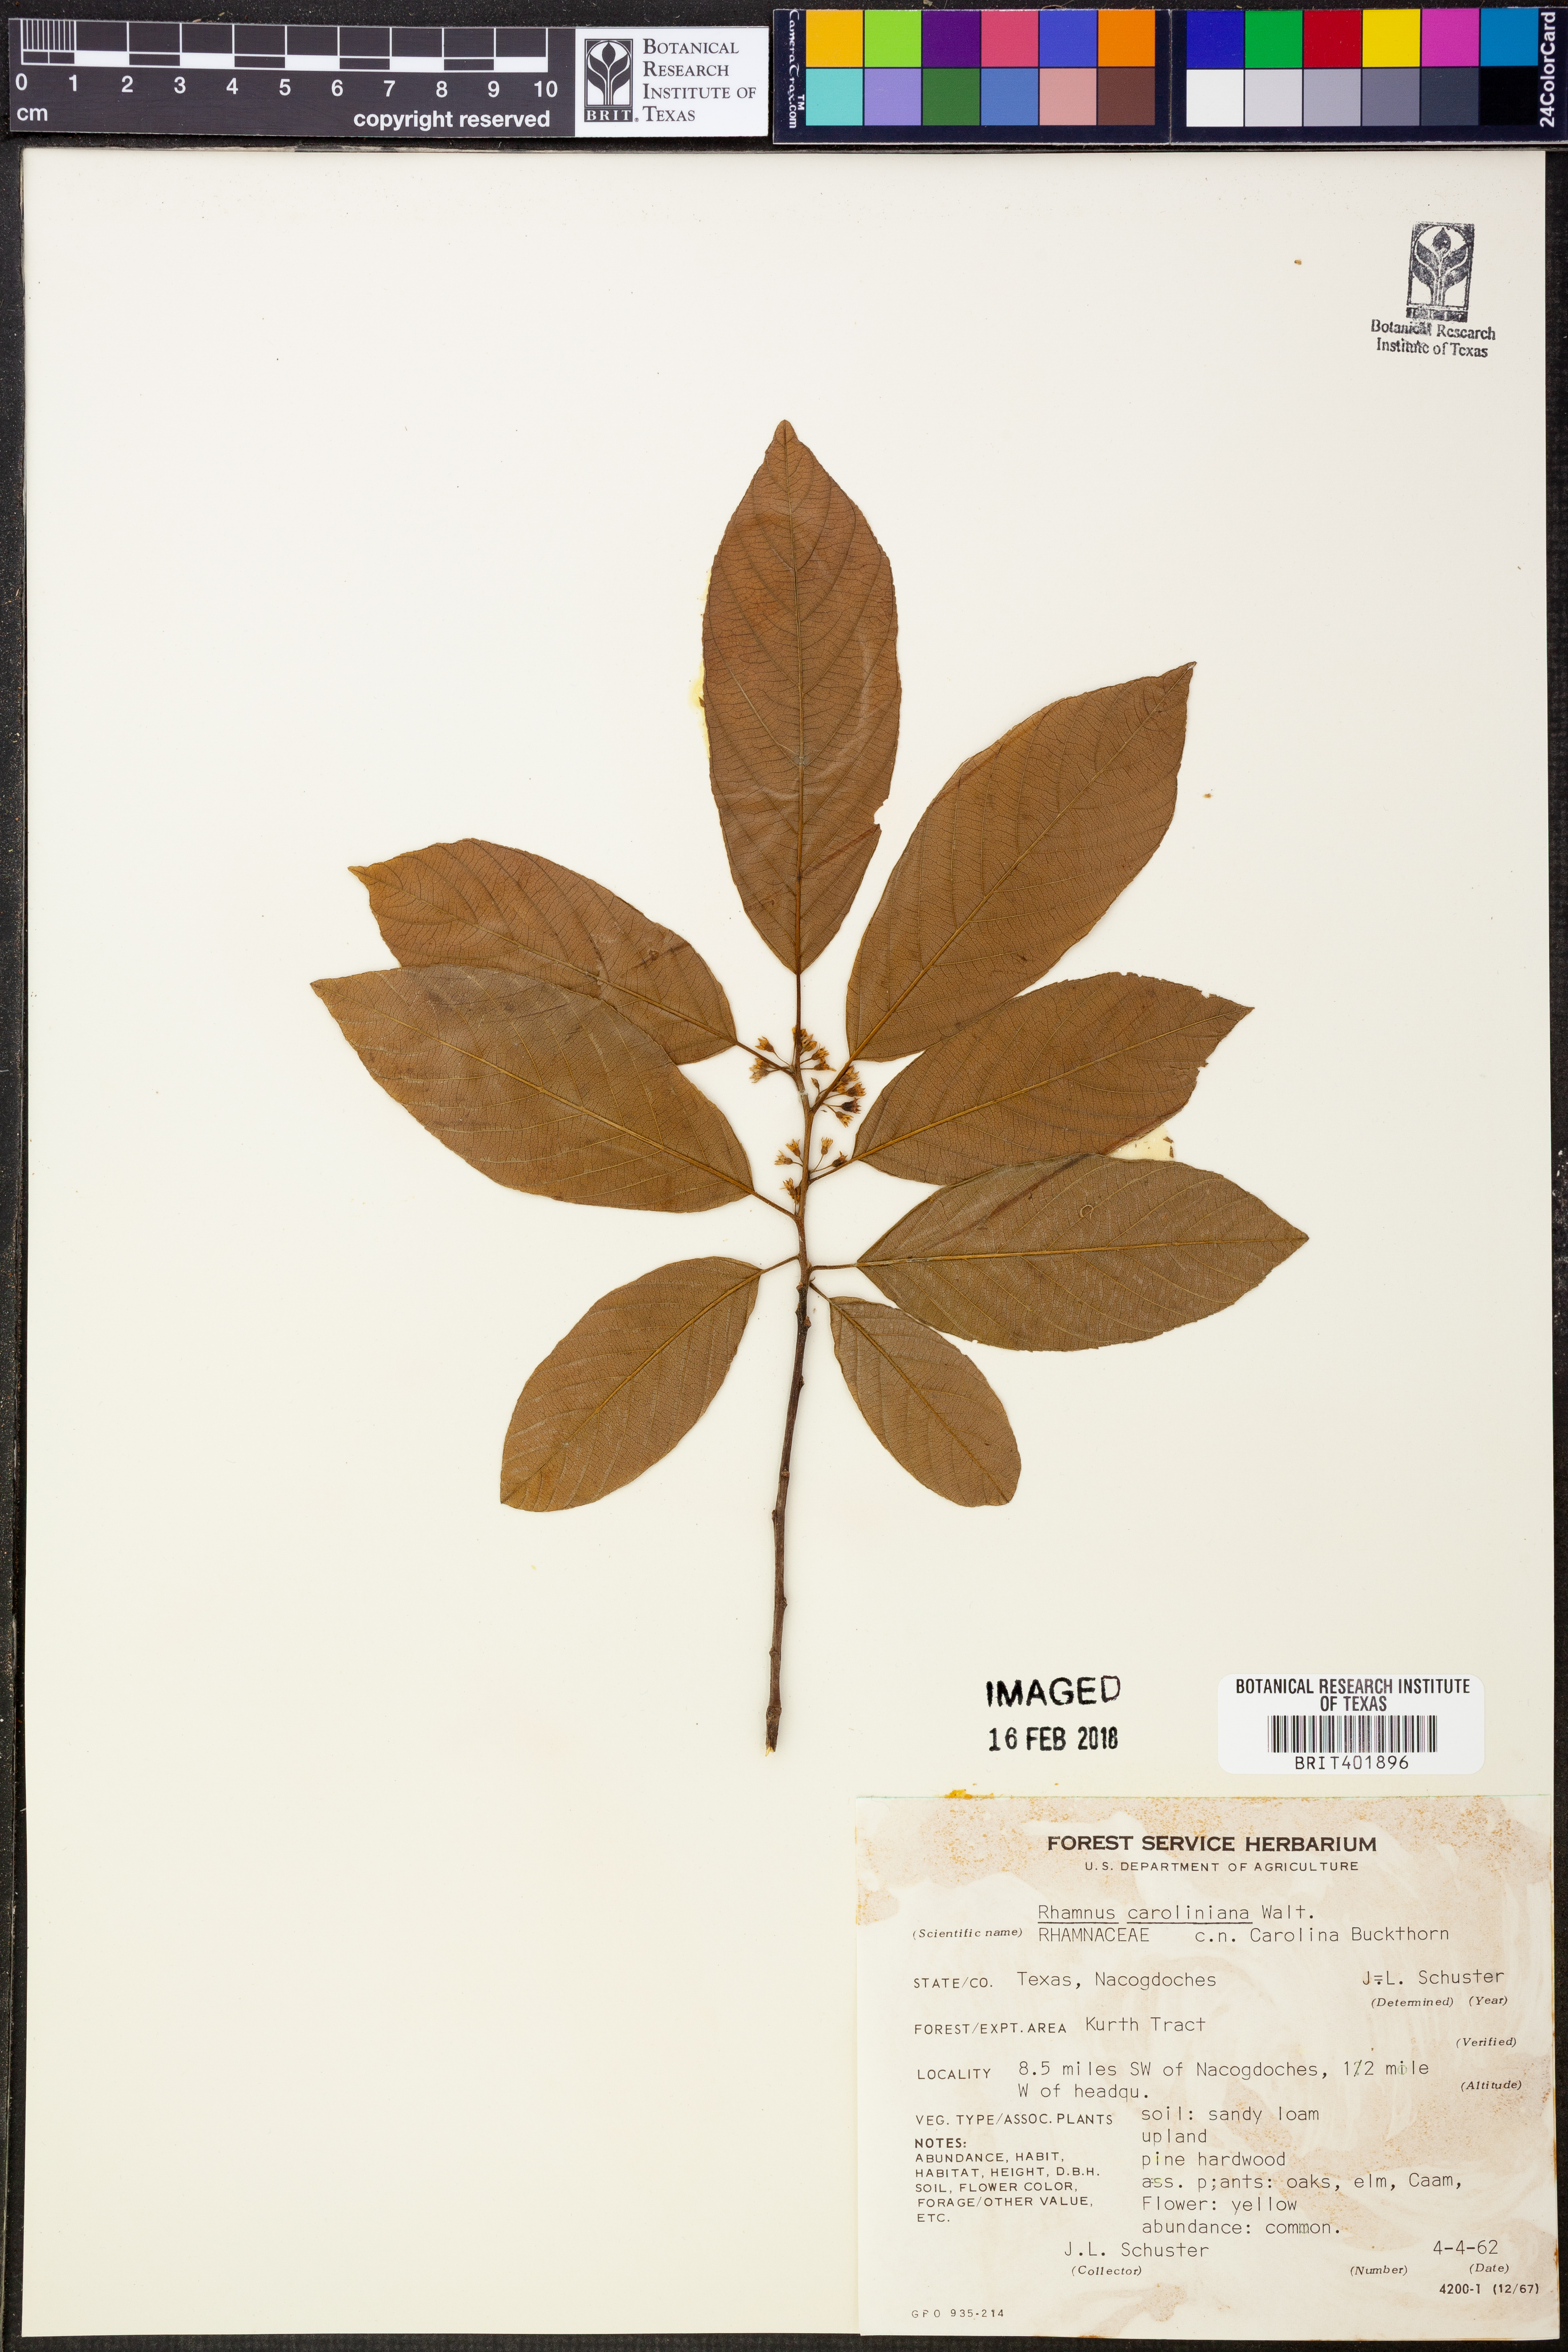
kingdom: Plantae
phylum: Tracheophyta
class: Magnoliopsida
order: Rosales
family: Rhamnaceae
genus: Frangula
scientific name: Frangula caroliniana
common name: Carolina buckthorn
